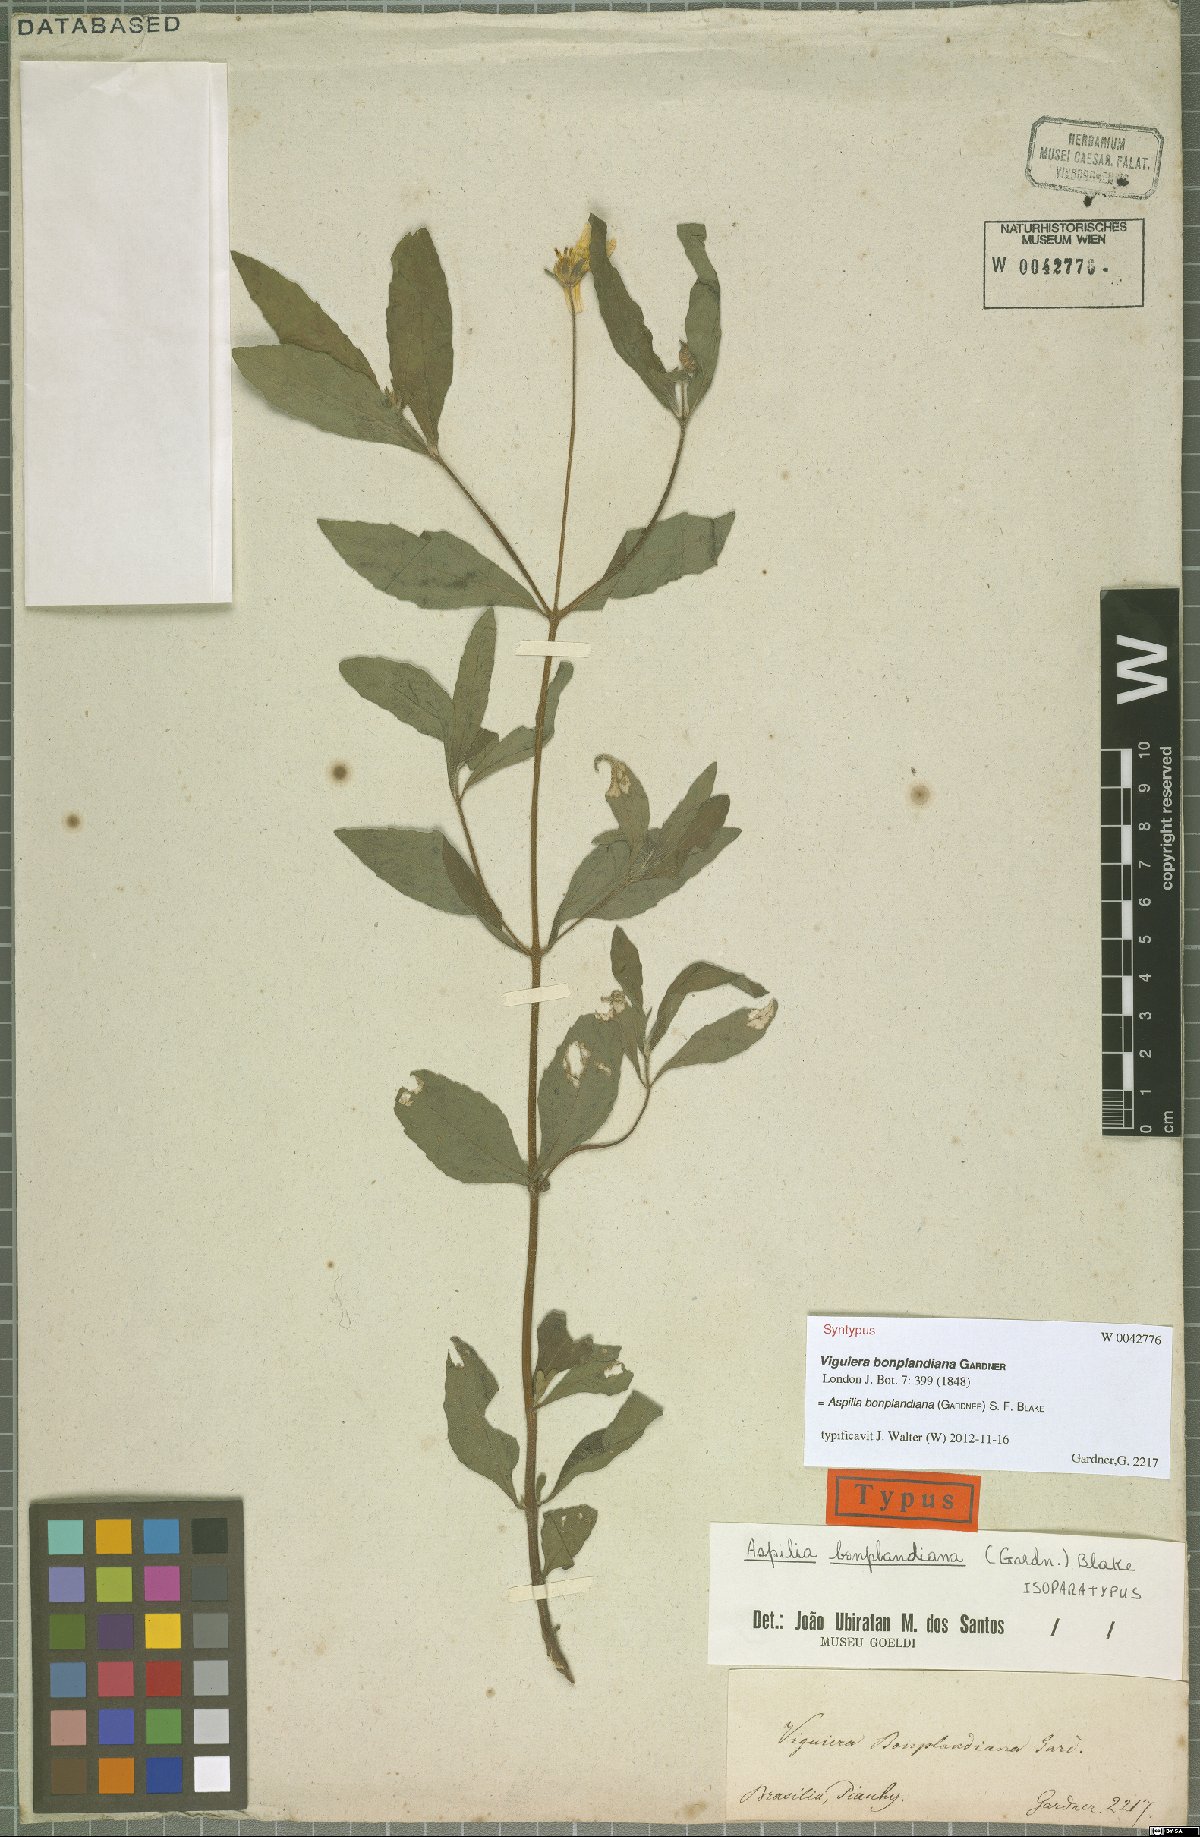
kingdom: Plantae
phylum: Tracheophyta
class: Magnoliopsida
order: Asterales
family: Asteraceae
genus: Wedelia
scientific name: Wedelia bonplandiana
